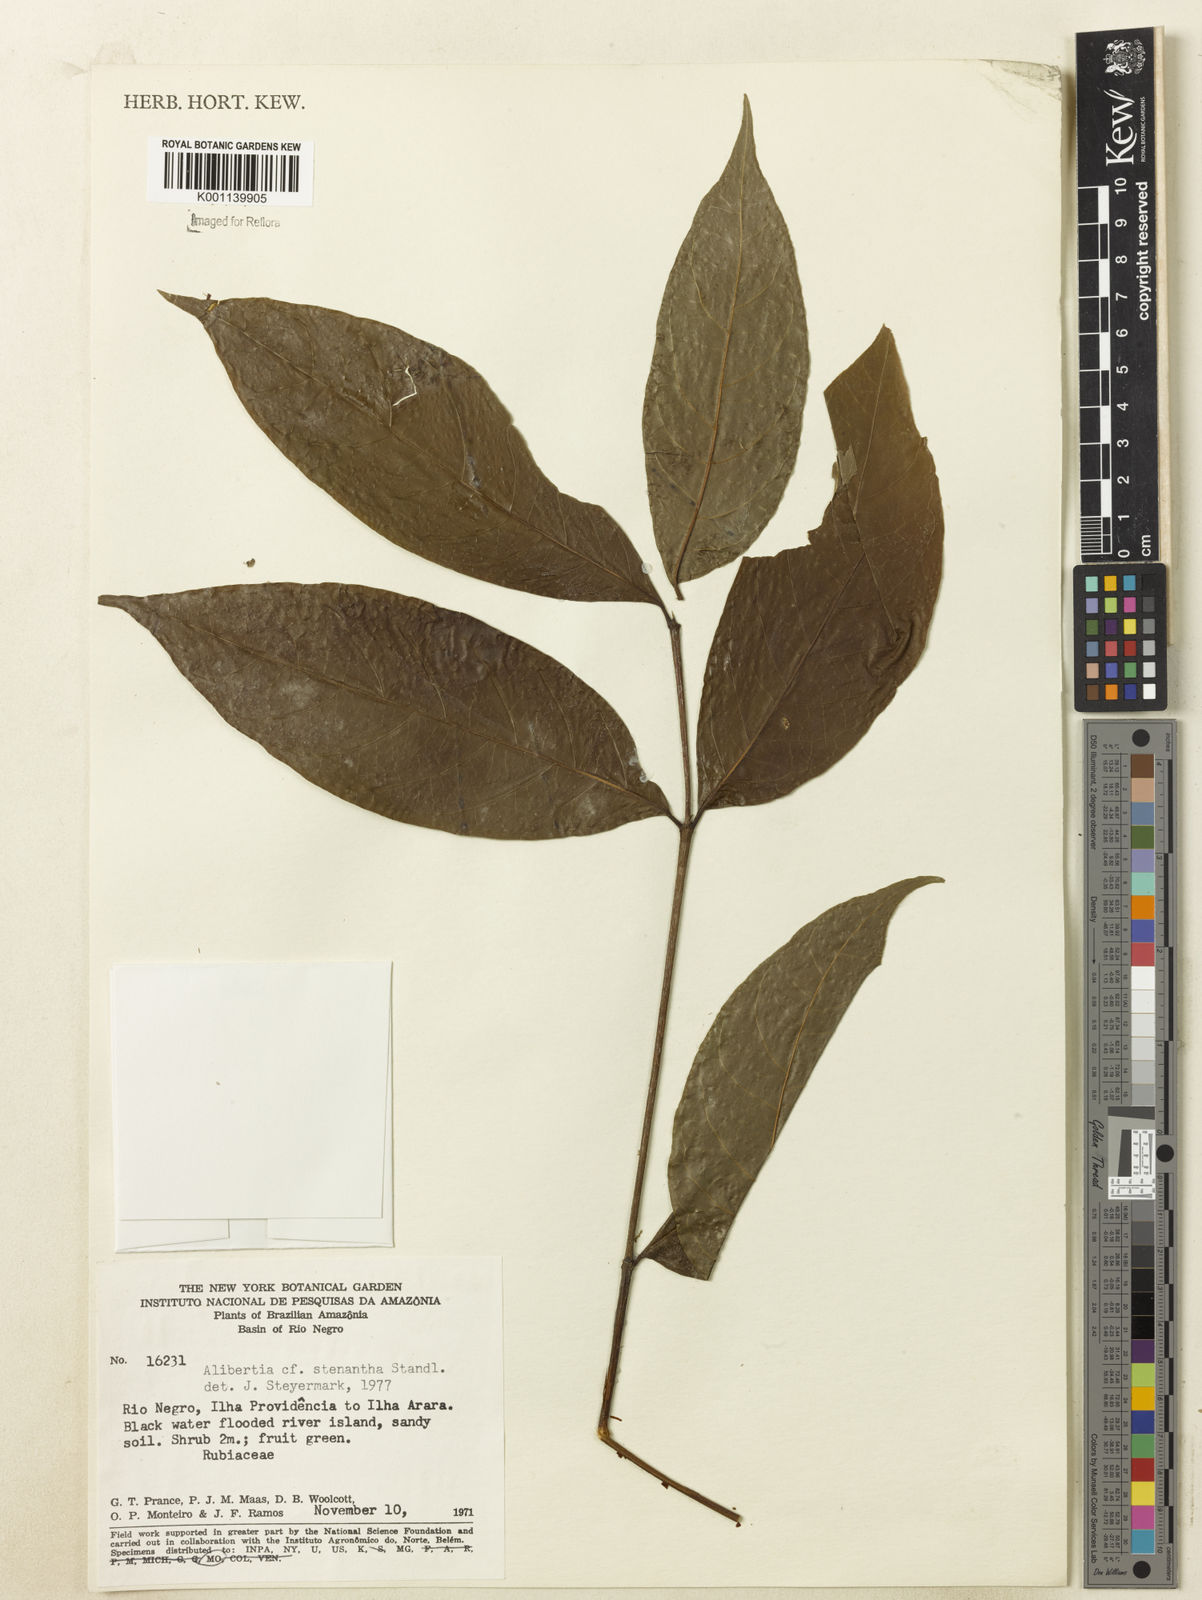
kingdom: Plantae
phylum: Tracheophyta
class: Magnoliopsida
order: Gentianales
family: Rubiaceae
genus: Alibertia
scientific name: Alibertia bertierifolia
